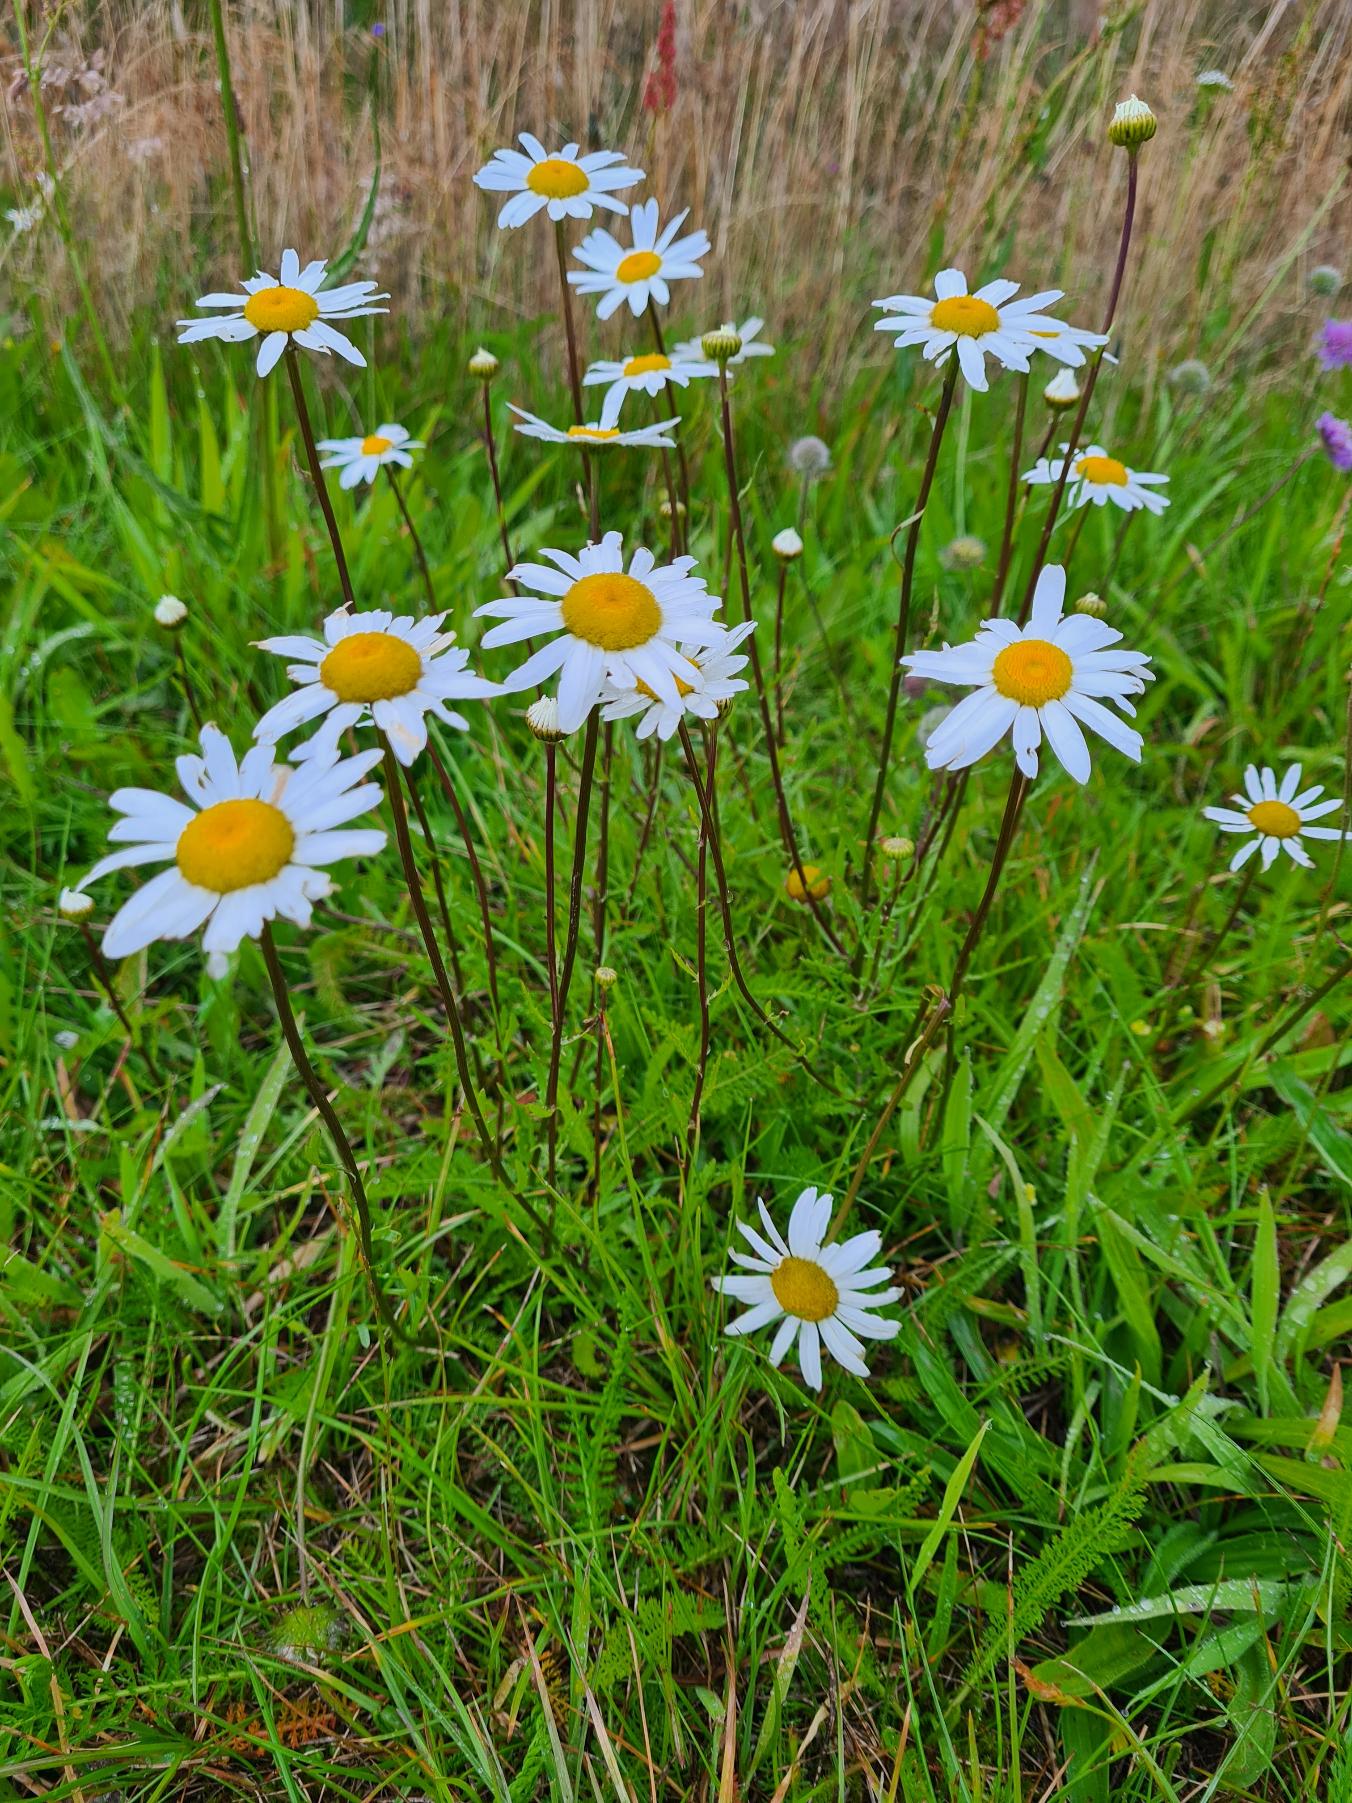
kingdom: Plantae
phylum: Tracheophyta
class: Magnoliopsida
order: Asterales
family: Asteraceae
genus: Leucanthemum
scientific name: Leucanthemum vulgare
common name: Hvid okseøje
